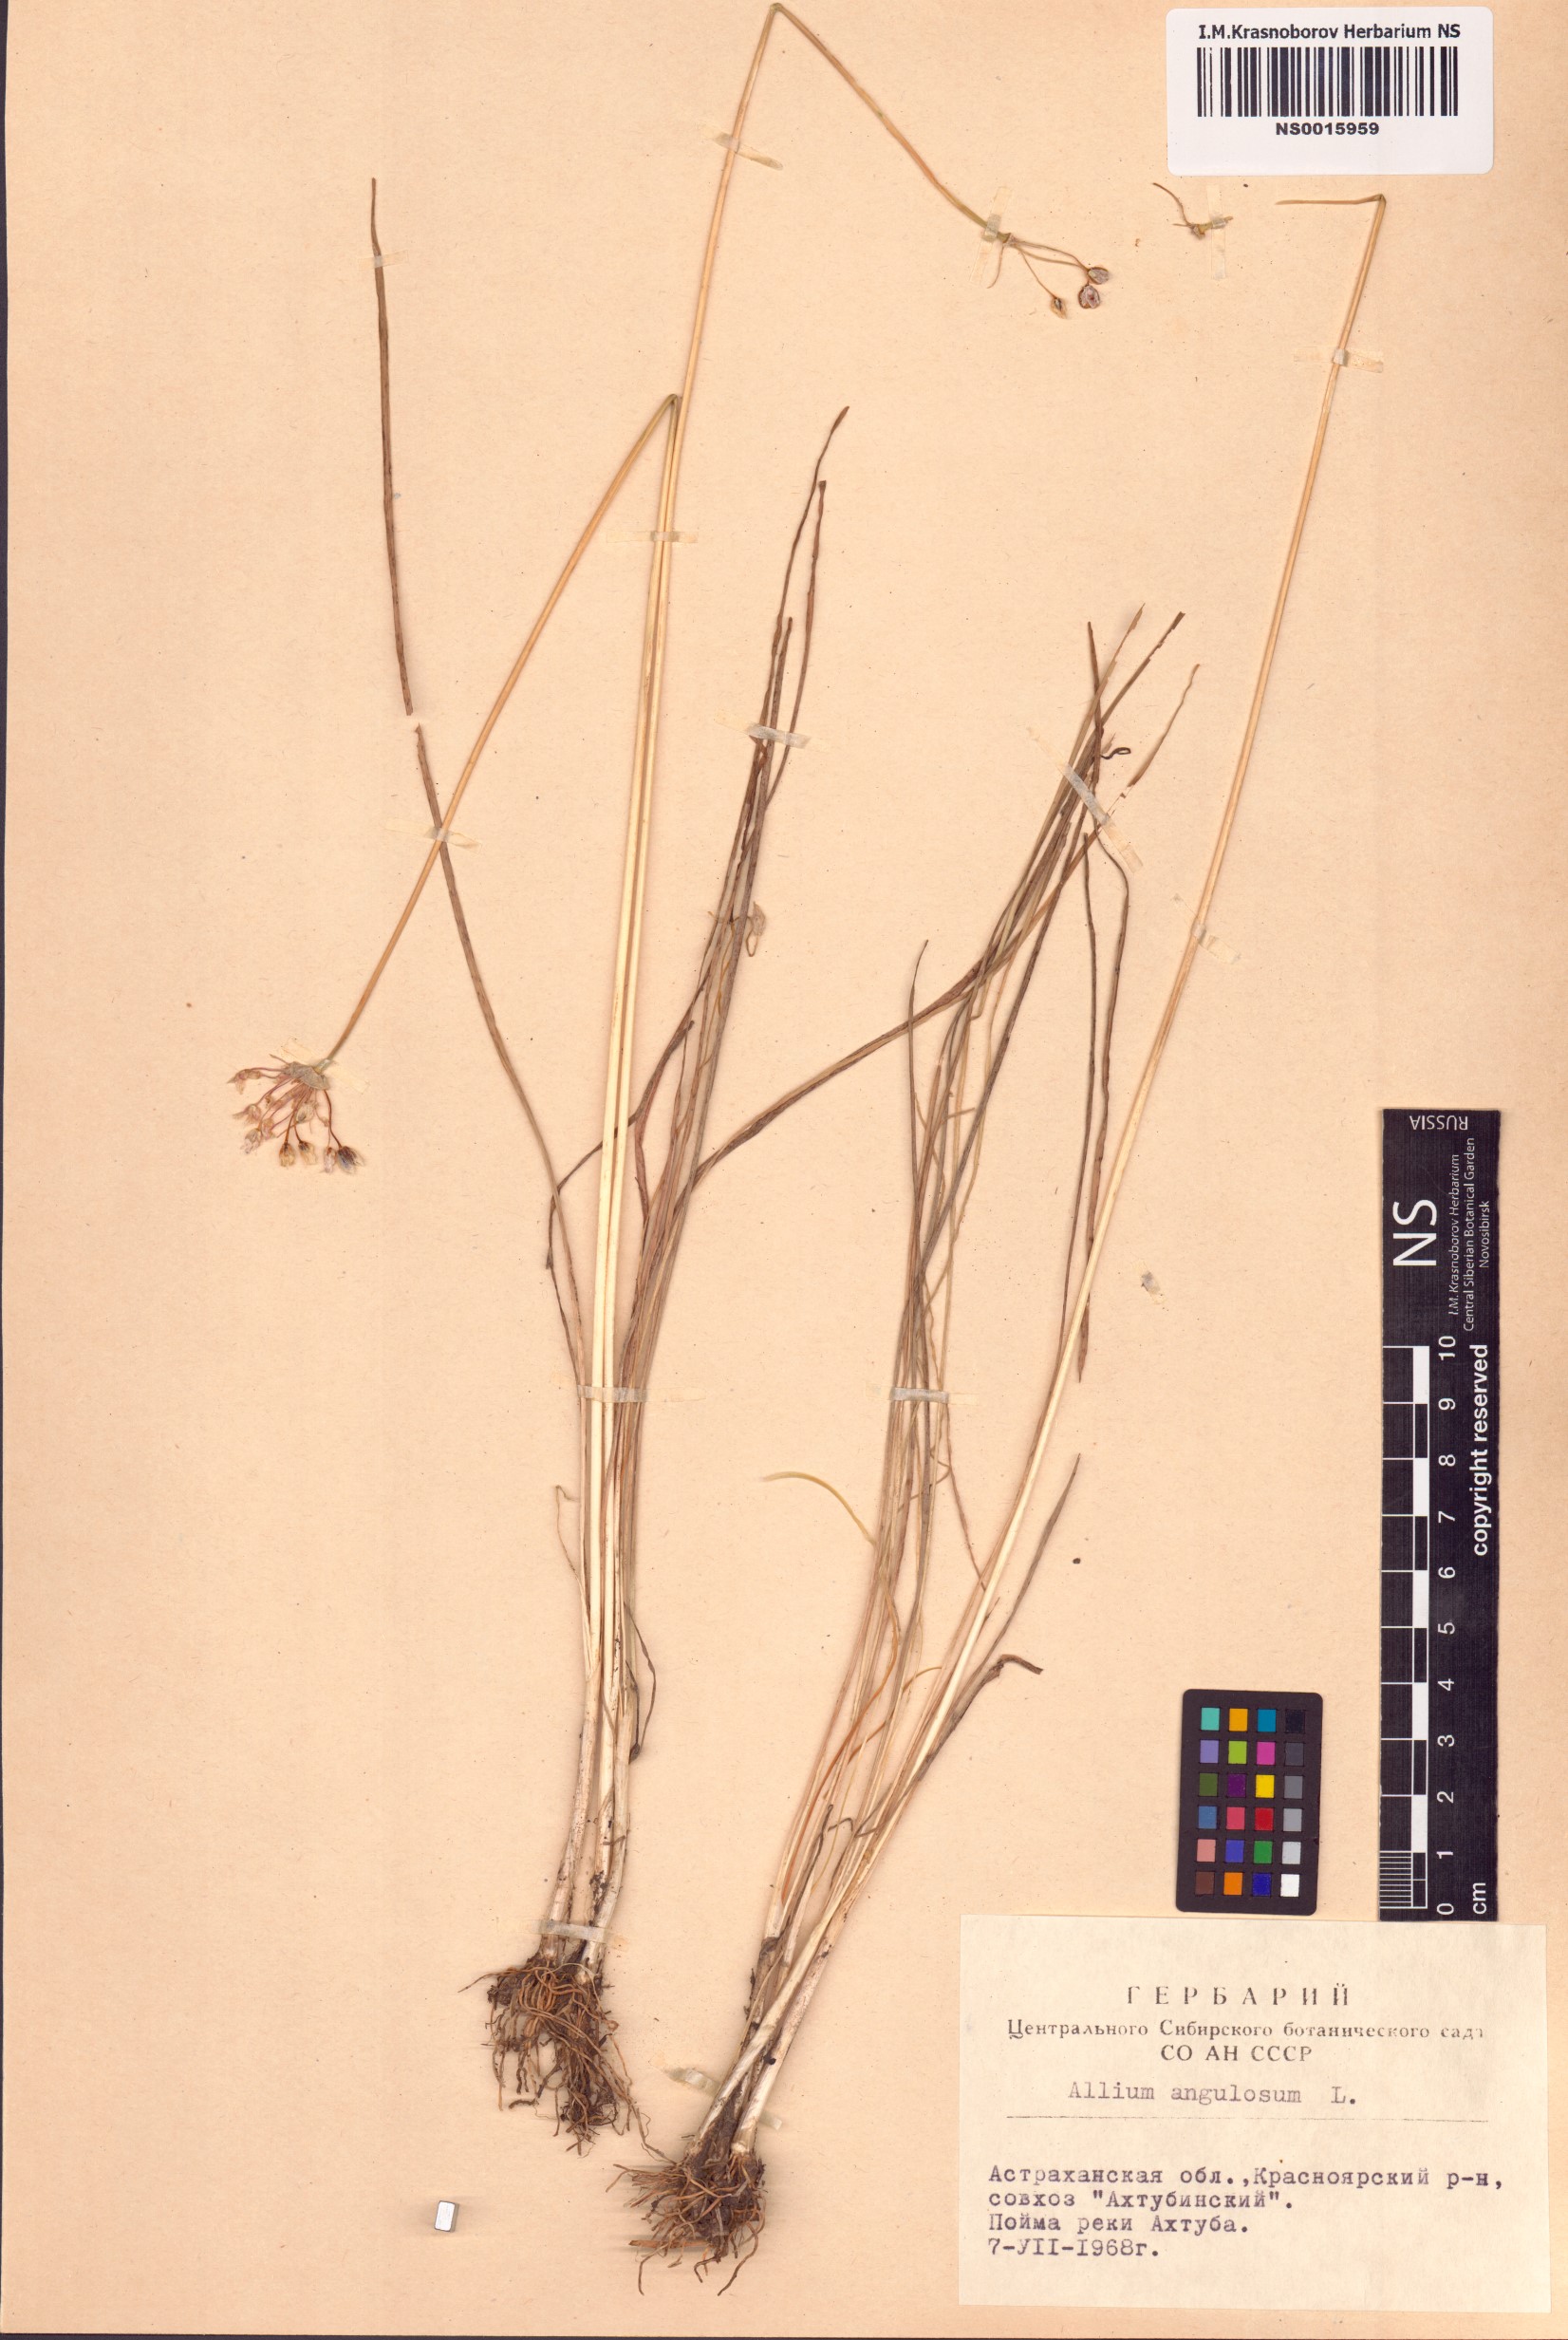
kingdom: Plantae
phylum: Tracheophyta
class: Liliopsida
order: Asparagales
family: Amaryllidaceae
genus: Allium
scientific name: Allium angulosum
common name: Mouse garlic
